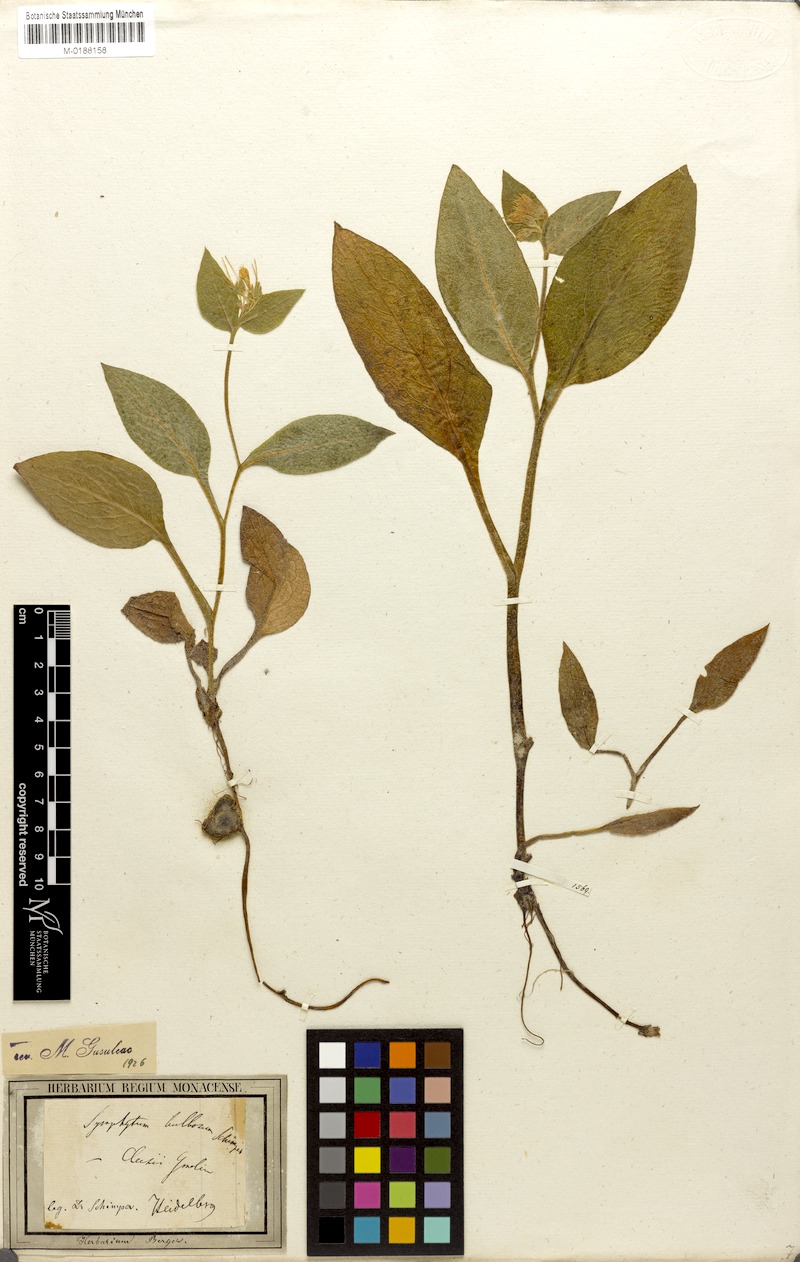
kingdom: Plantae
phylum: Tracheophyta
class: Magnoliopsida
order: Boraginales
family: Boraginaceae
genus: Symphytum
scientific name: Symphytum bulbosum
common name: Bulbous comfrey
